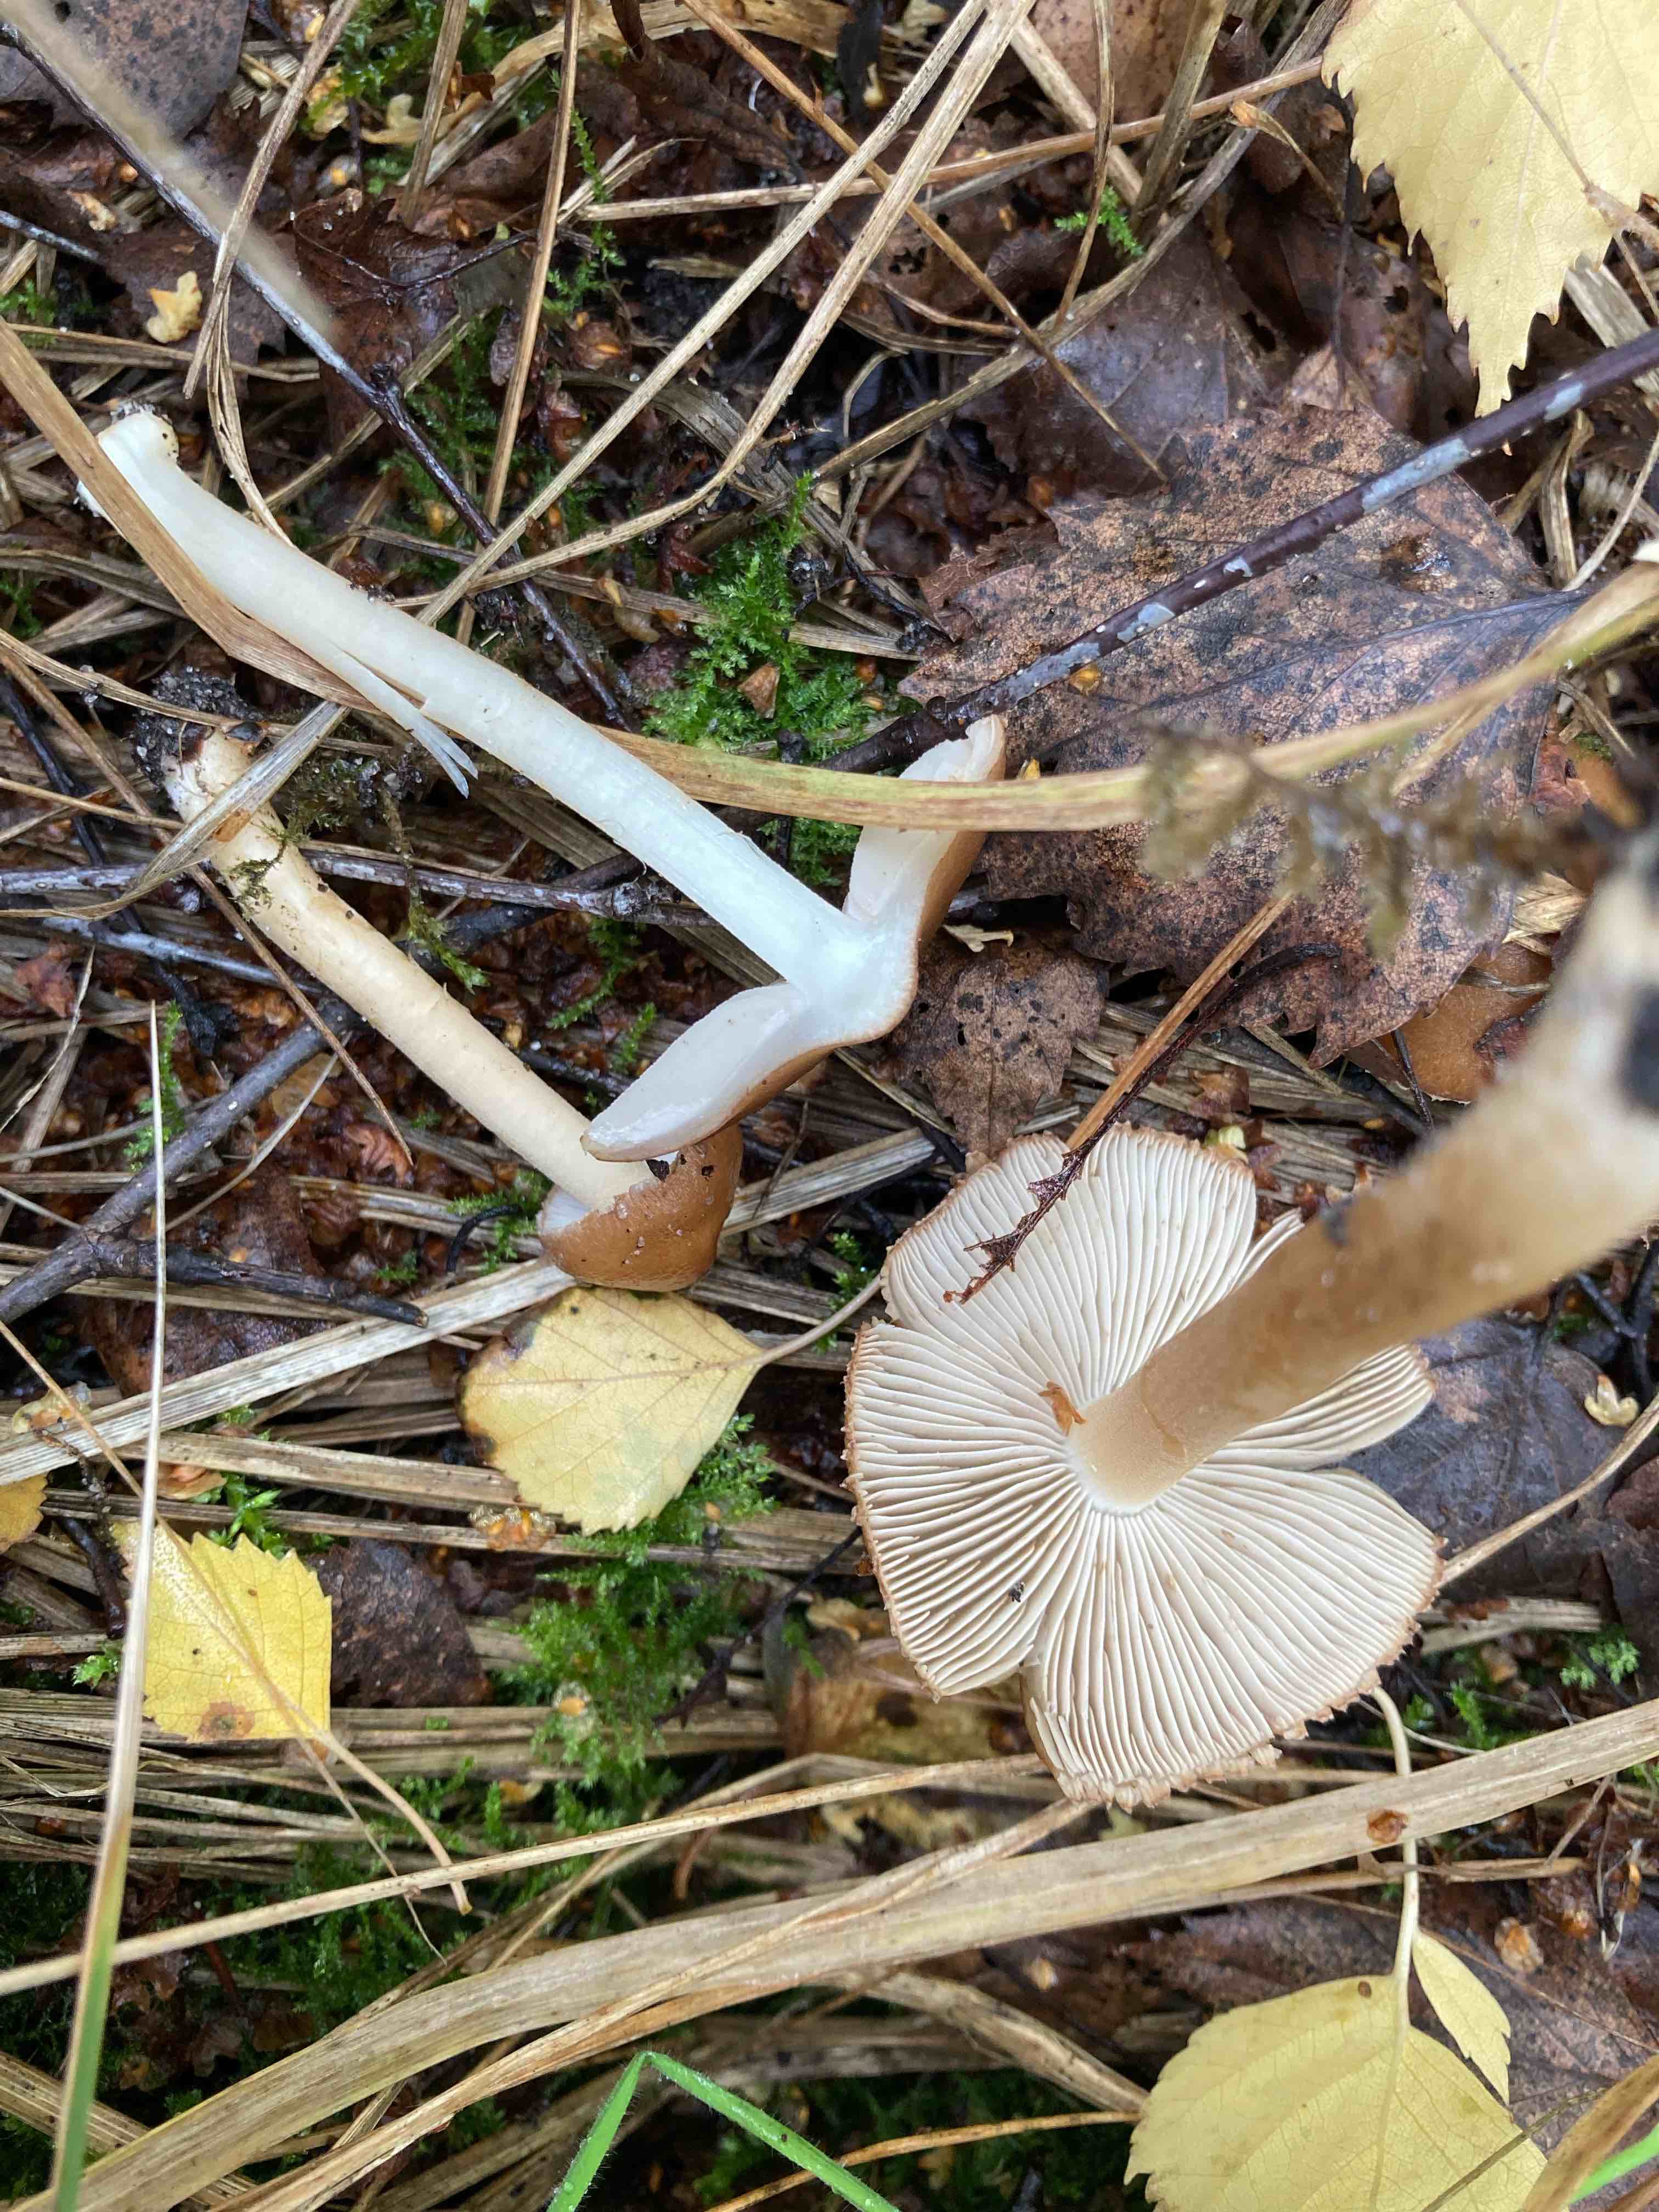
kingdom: Fungi
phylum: Basidiomycota
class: Agaricomycetes
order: Agaricales
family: Inocybaceae
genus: Inocybe
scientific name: Inocybe
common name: trævlhat
